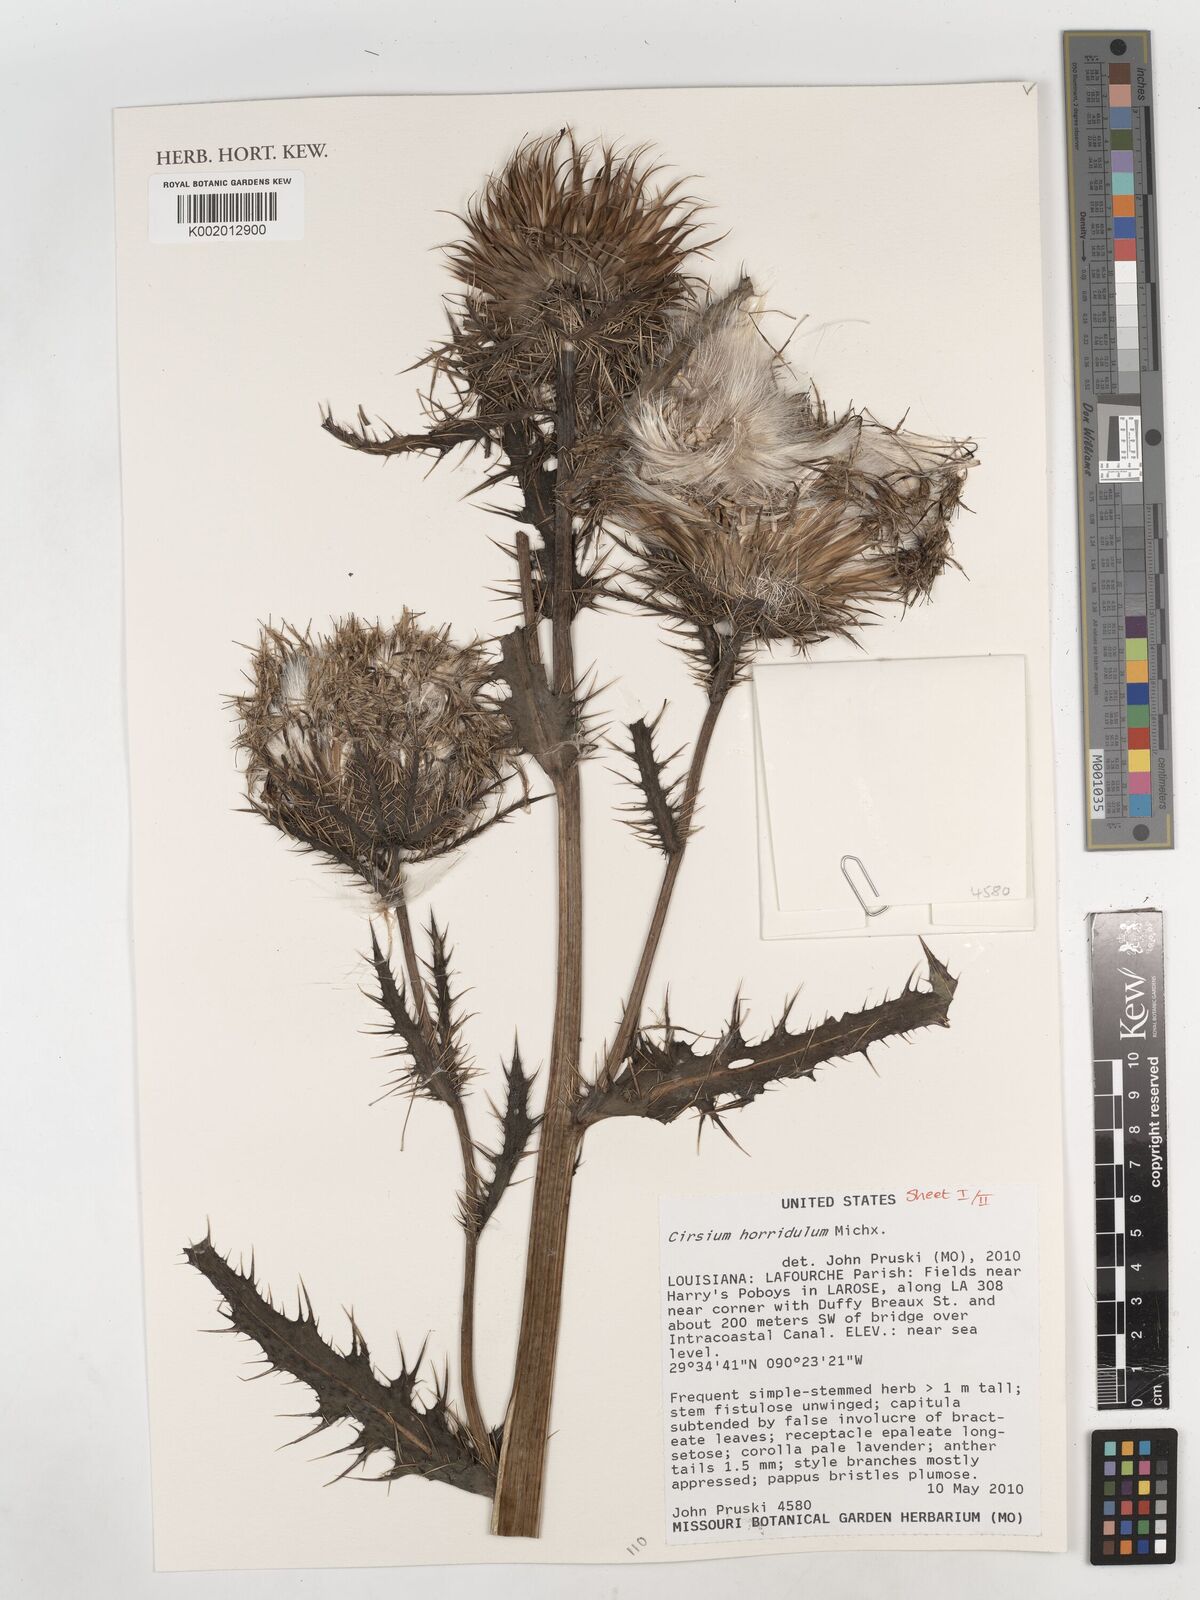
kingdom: Plantae
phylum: Tracheophyta
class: Magnoliopsida
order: Asterales
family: Asteraceae
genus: Cirsium
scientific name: Cirsium horridulum
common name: Bristly thistle
